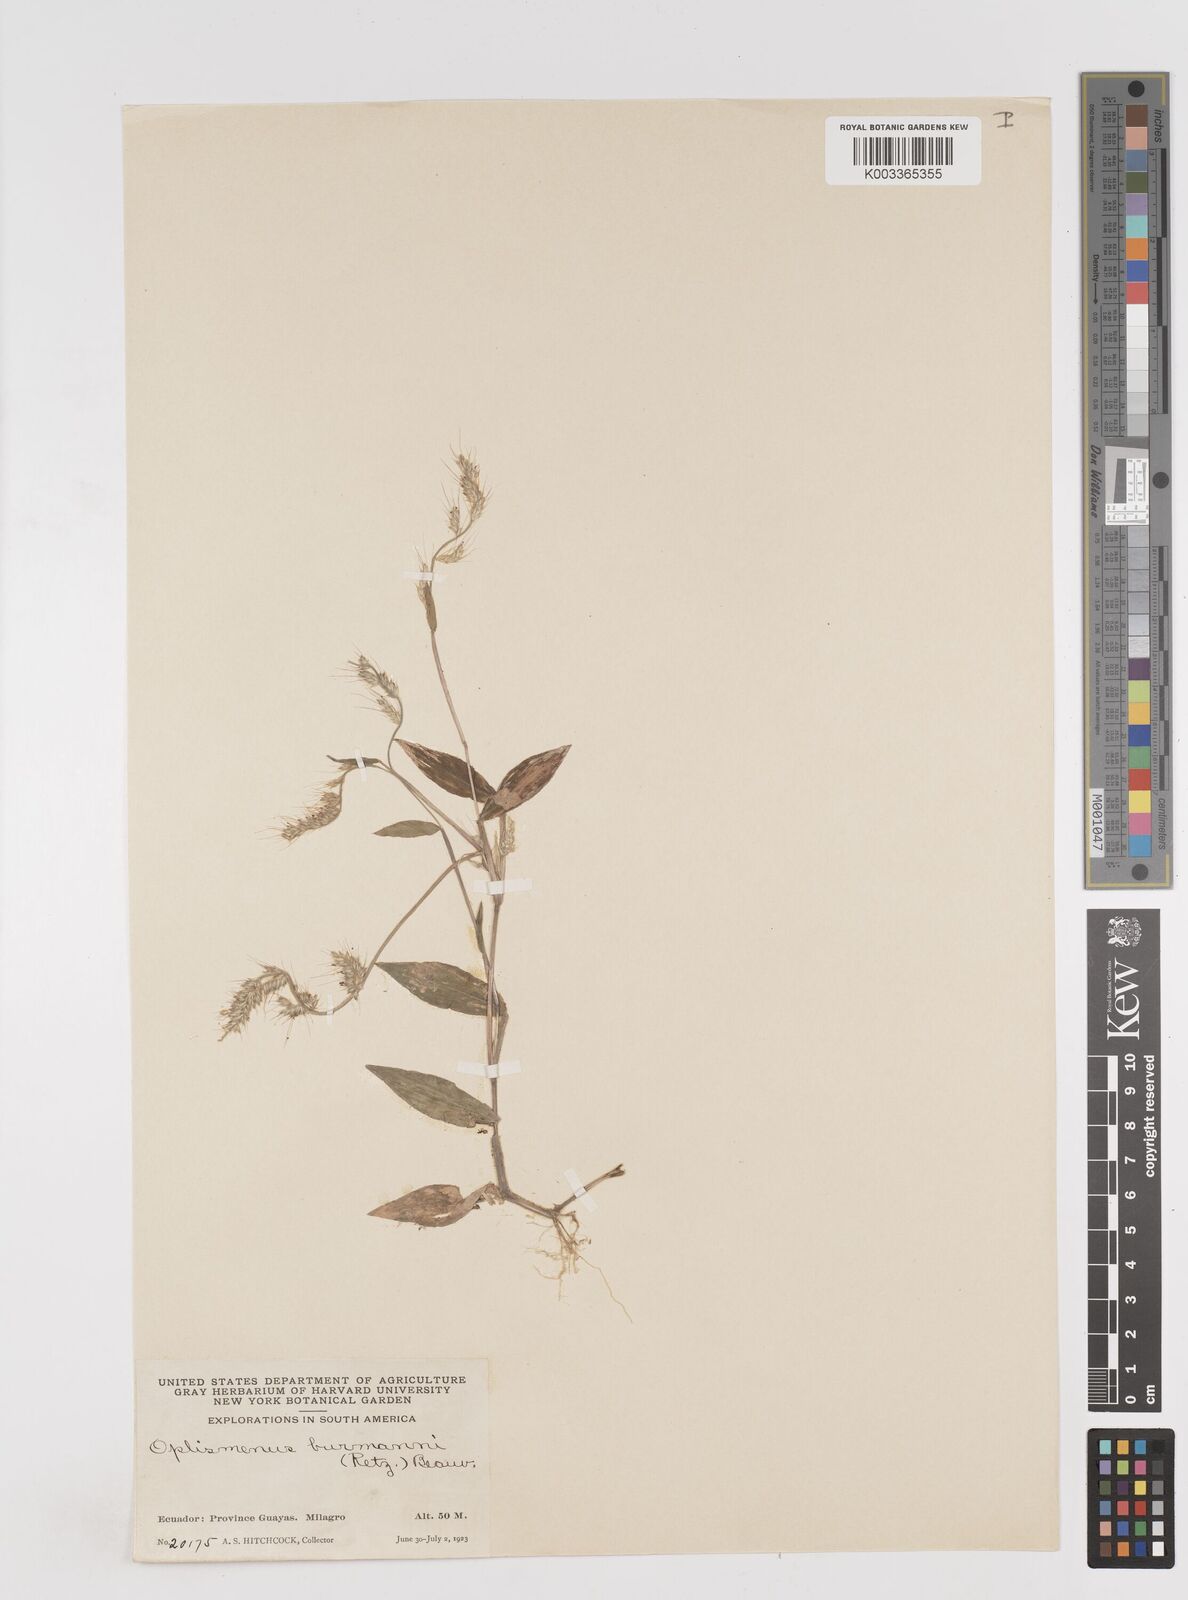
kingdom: Plantae
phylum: Tracheophyta
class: Liliopsida
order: Poales
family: Poaceae
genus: Oplismenus
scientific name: Oplismenus burmanni
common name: Burmann's basketgrass
